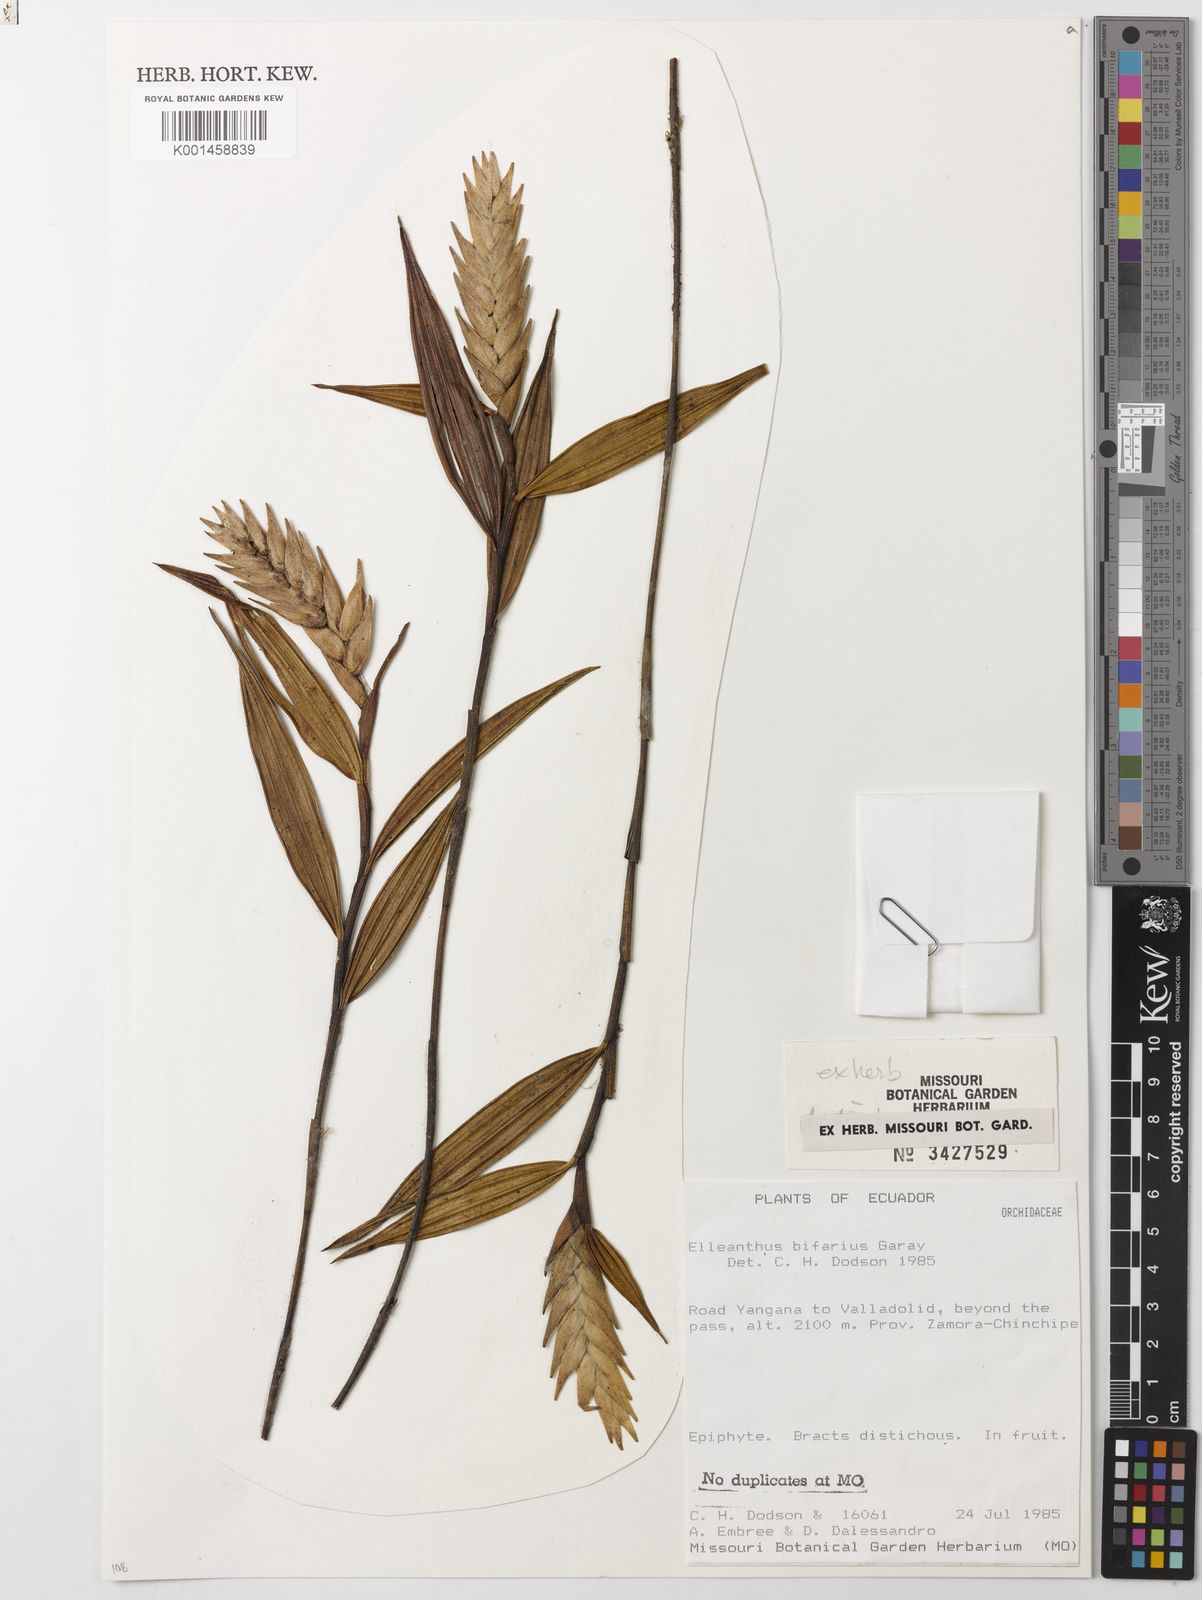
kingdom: Plantae
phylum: Tracheophyta
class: Liliopsida
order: Asparagales
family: Orchidaceae
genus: Elleanthus
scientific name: Elleanthus bifarius
